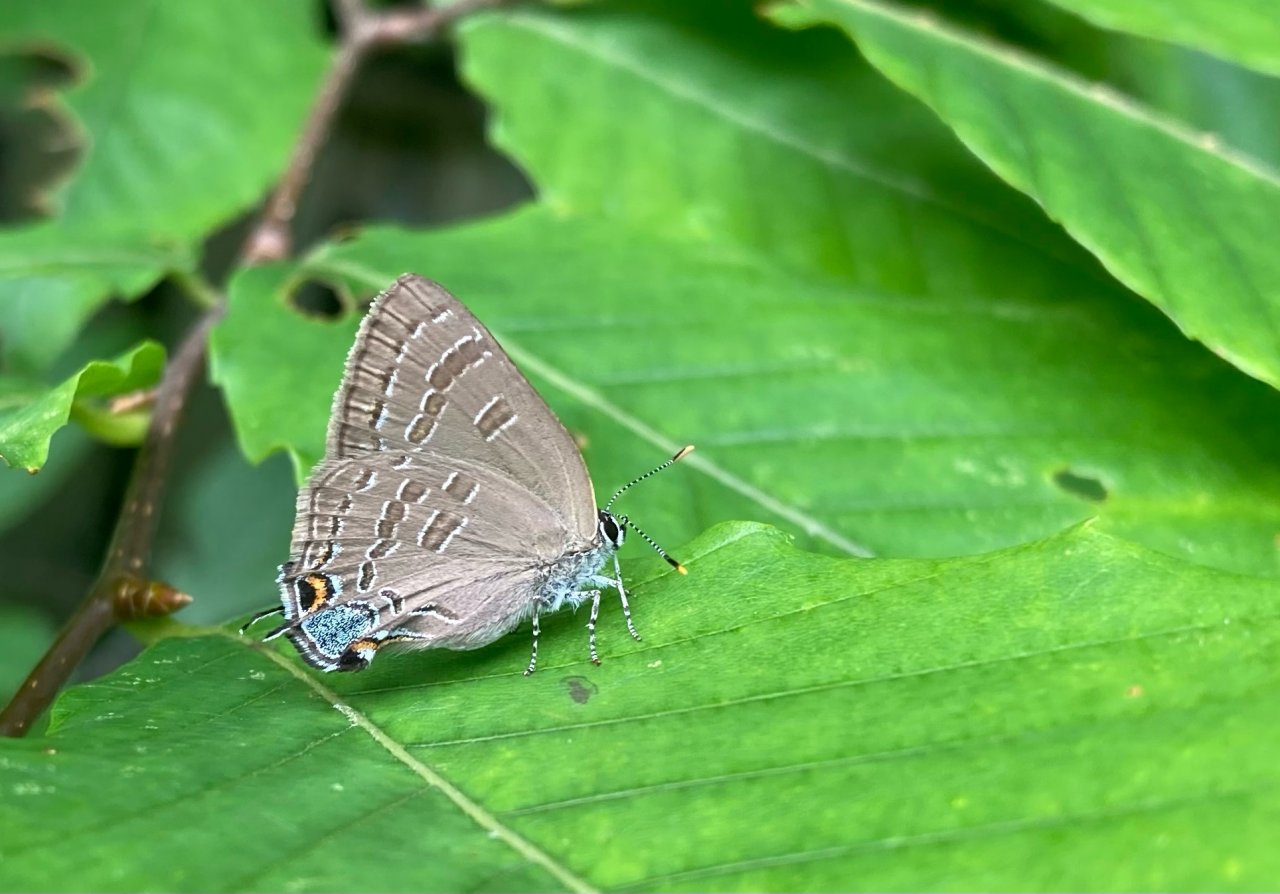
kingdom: Animalia
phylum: Arthropoda
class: Insecta
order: Lepidoptera
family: Lycaenidae
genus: Strymon
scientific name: Strymon caryaevorus
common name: Hickory Hairstreak
